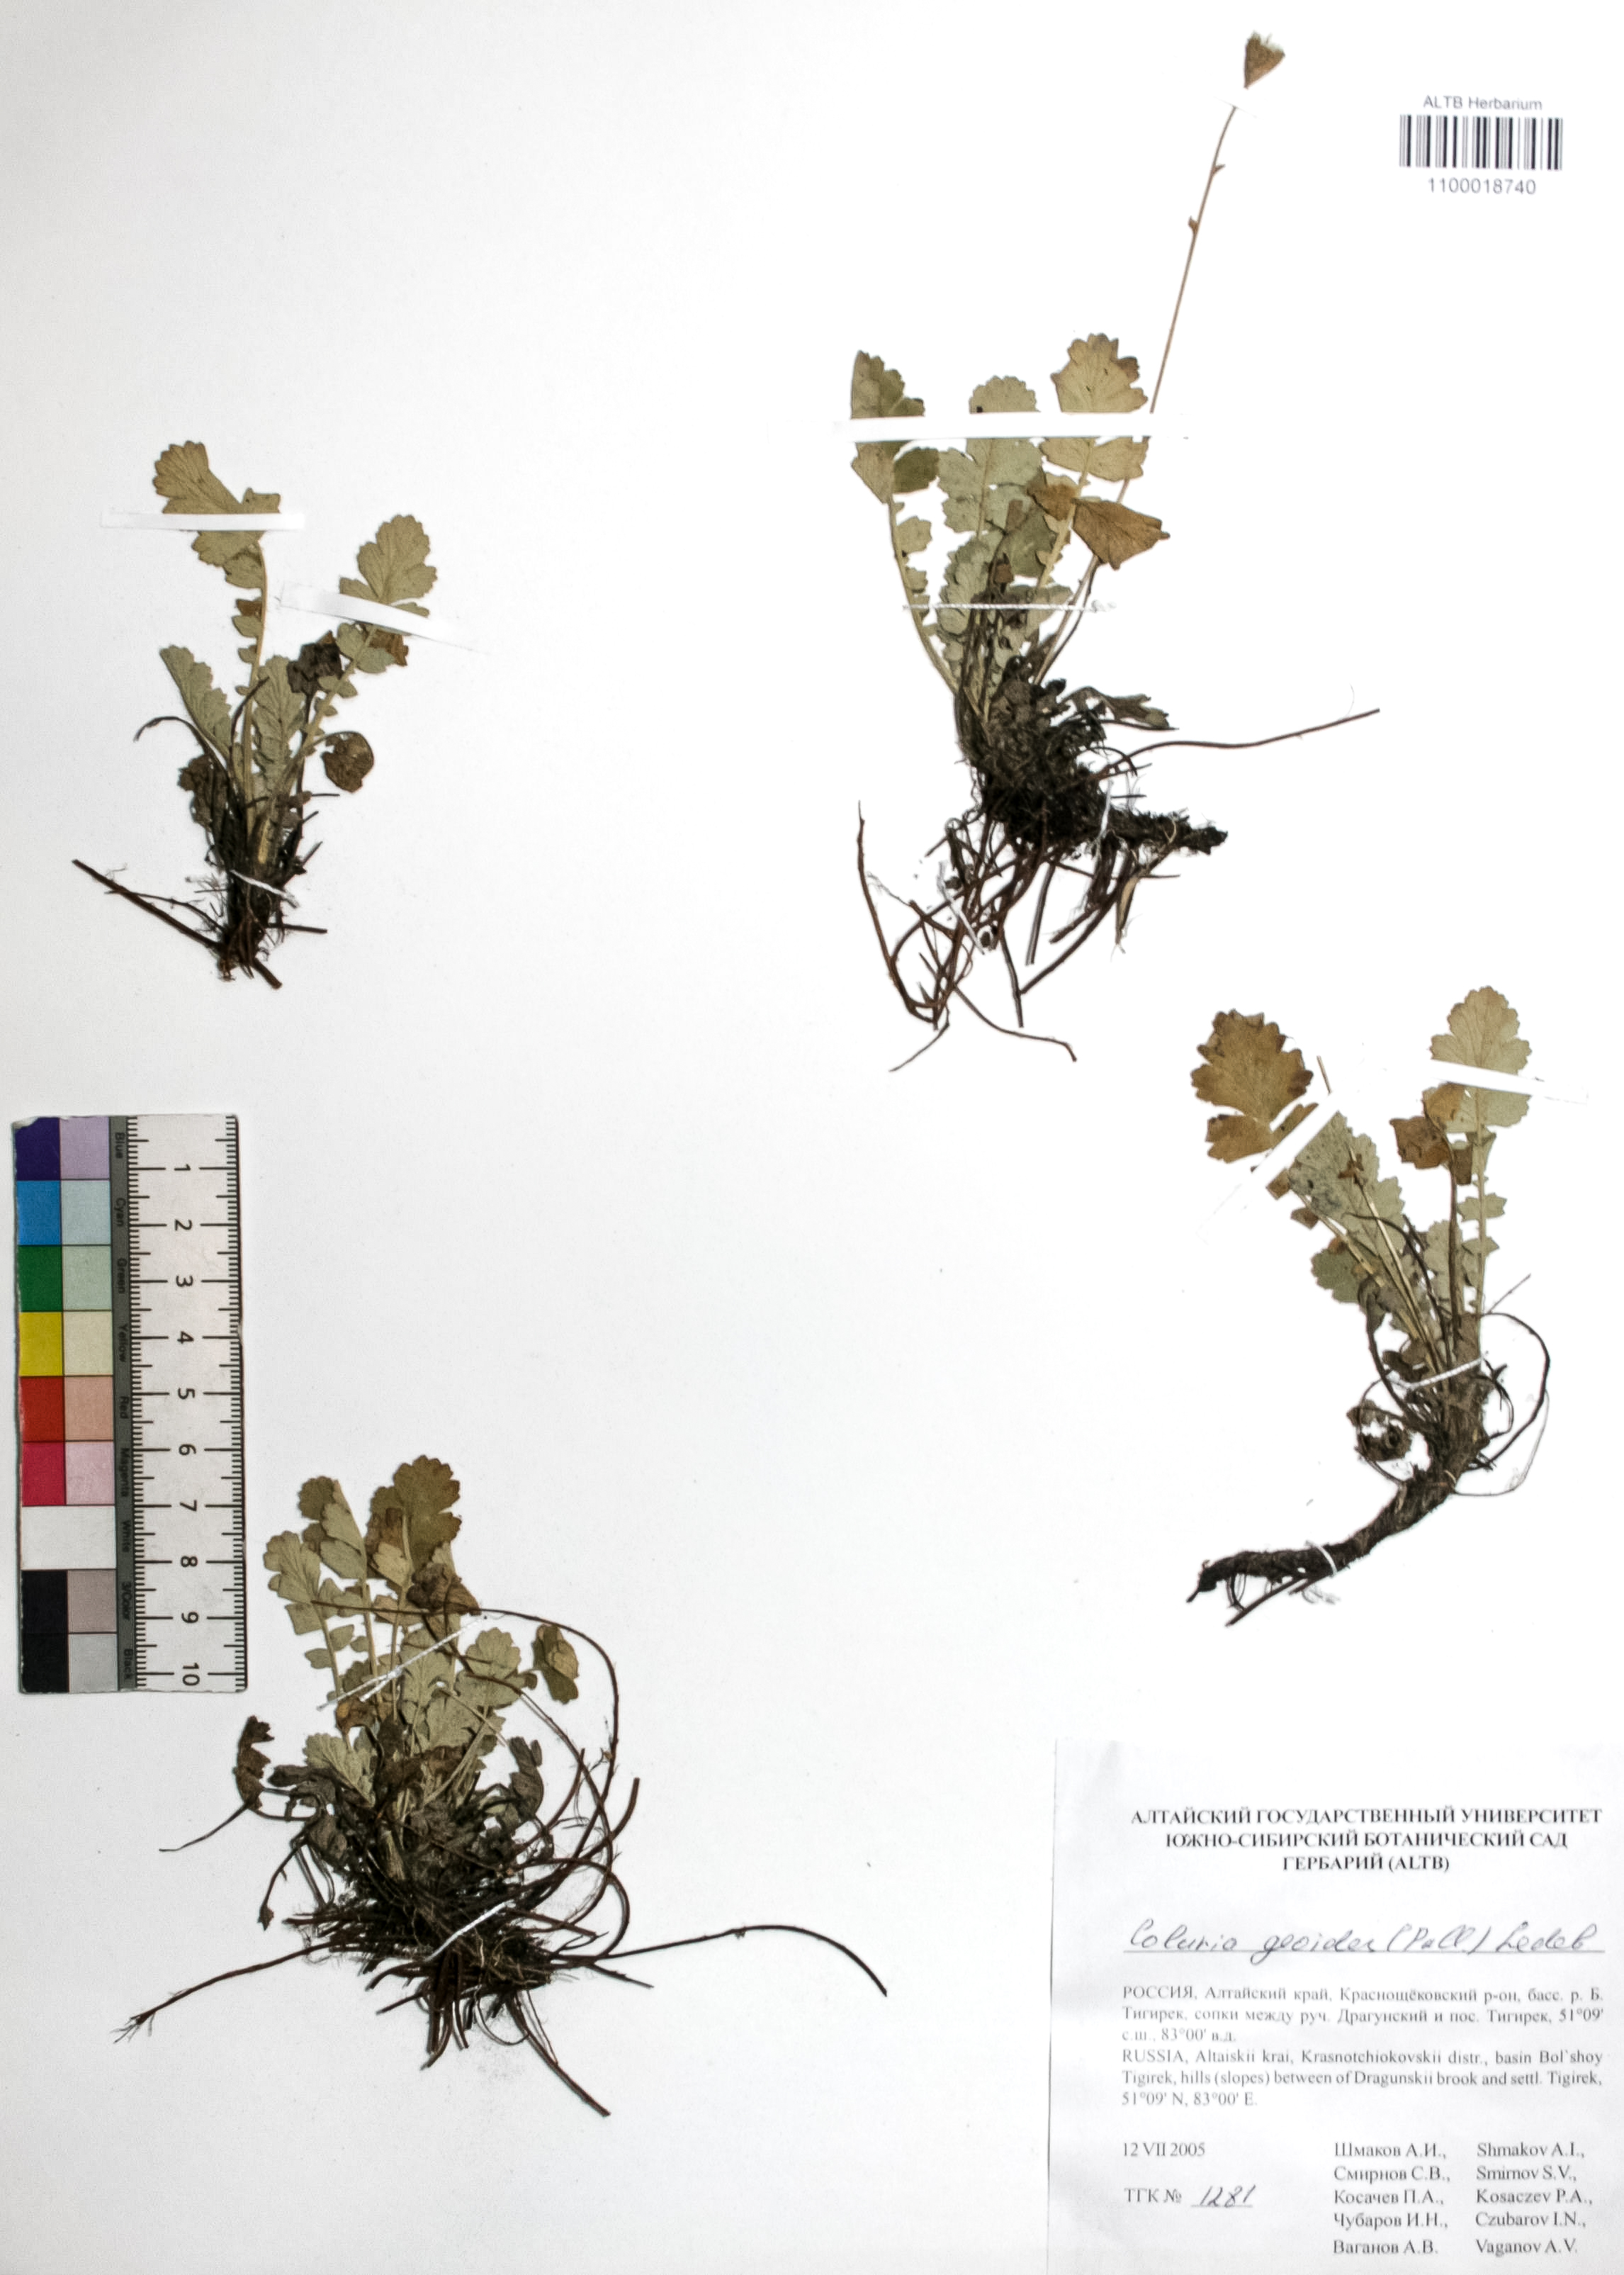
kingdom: Plantae
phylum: Tracheophyta
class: Magnoliopsida
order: Rosales
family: Rosaceae
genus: Geum
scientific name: Geum geoides
